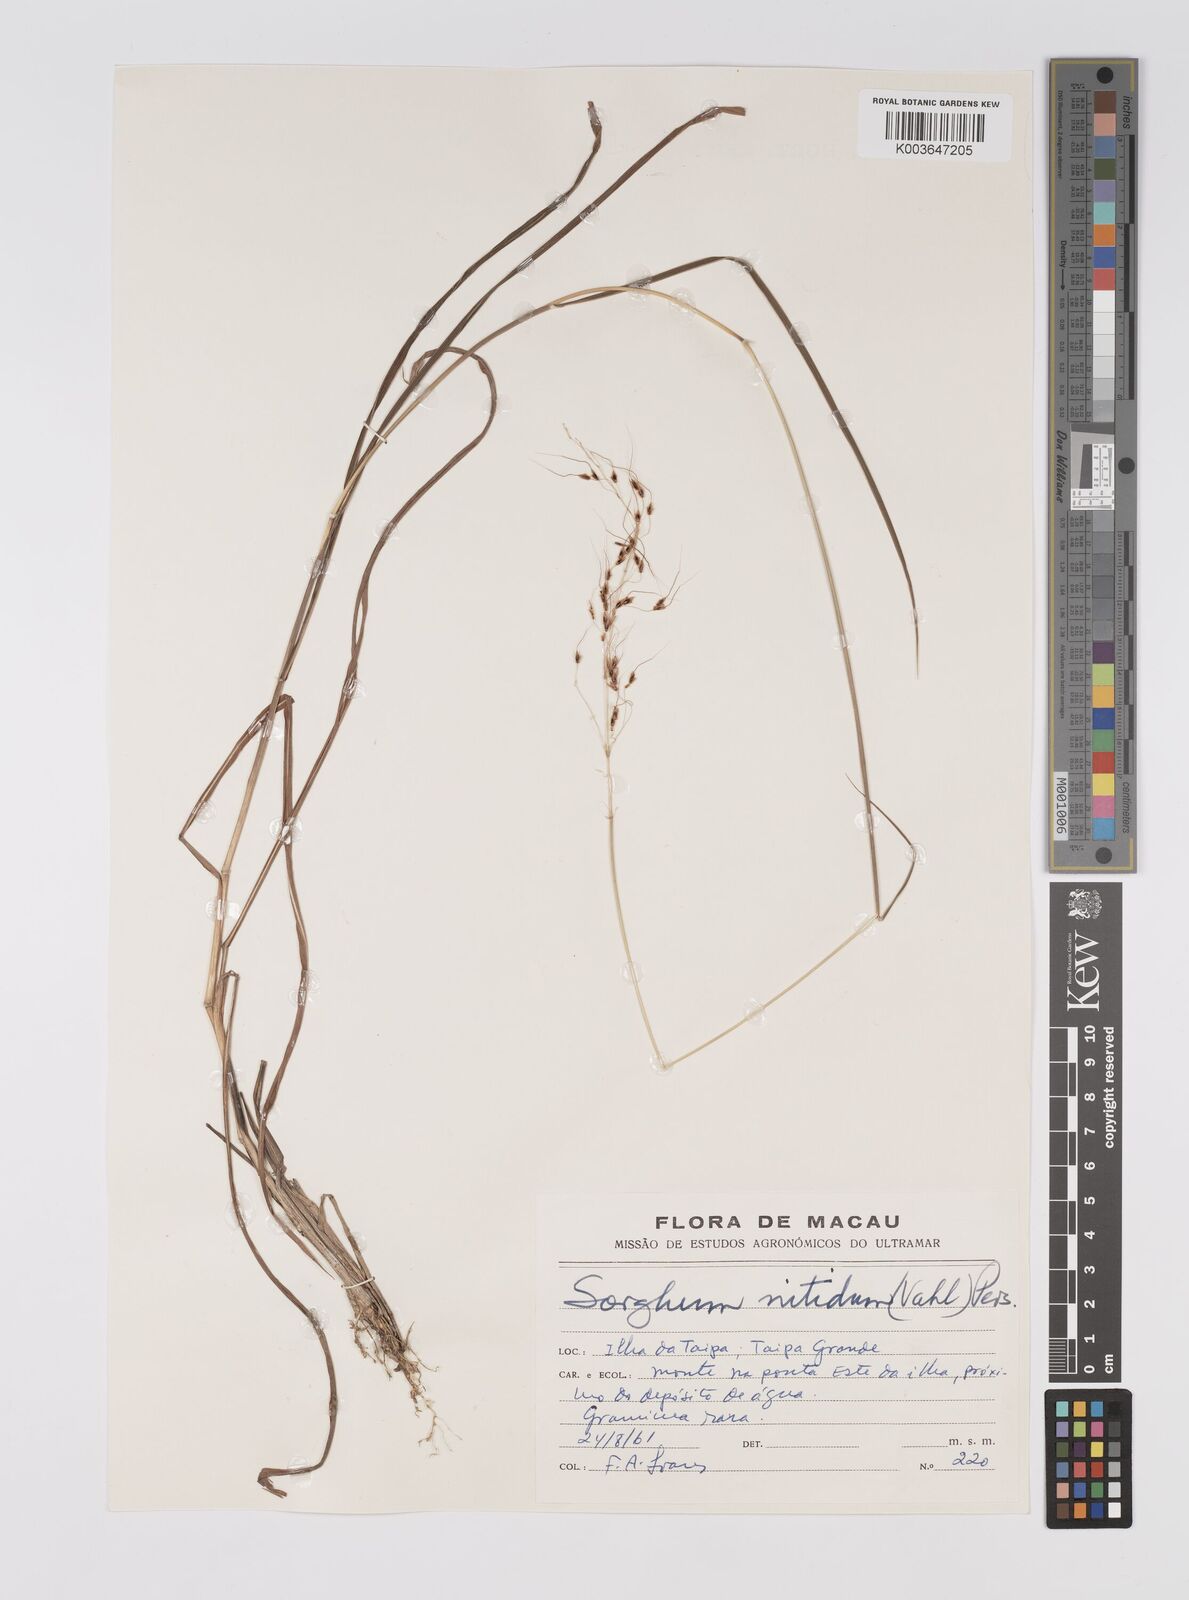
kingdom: Plantae
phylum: Tracheophyta
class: Liliopsida
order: Poales
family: Poaceae
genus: Sorghum
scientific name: Sorghum nitidum
